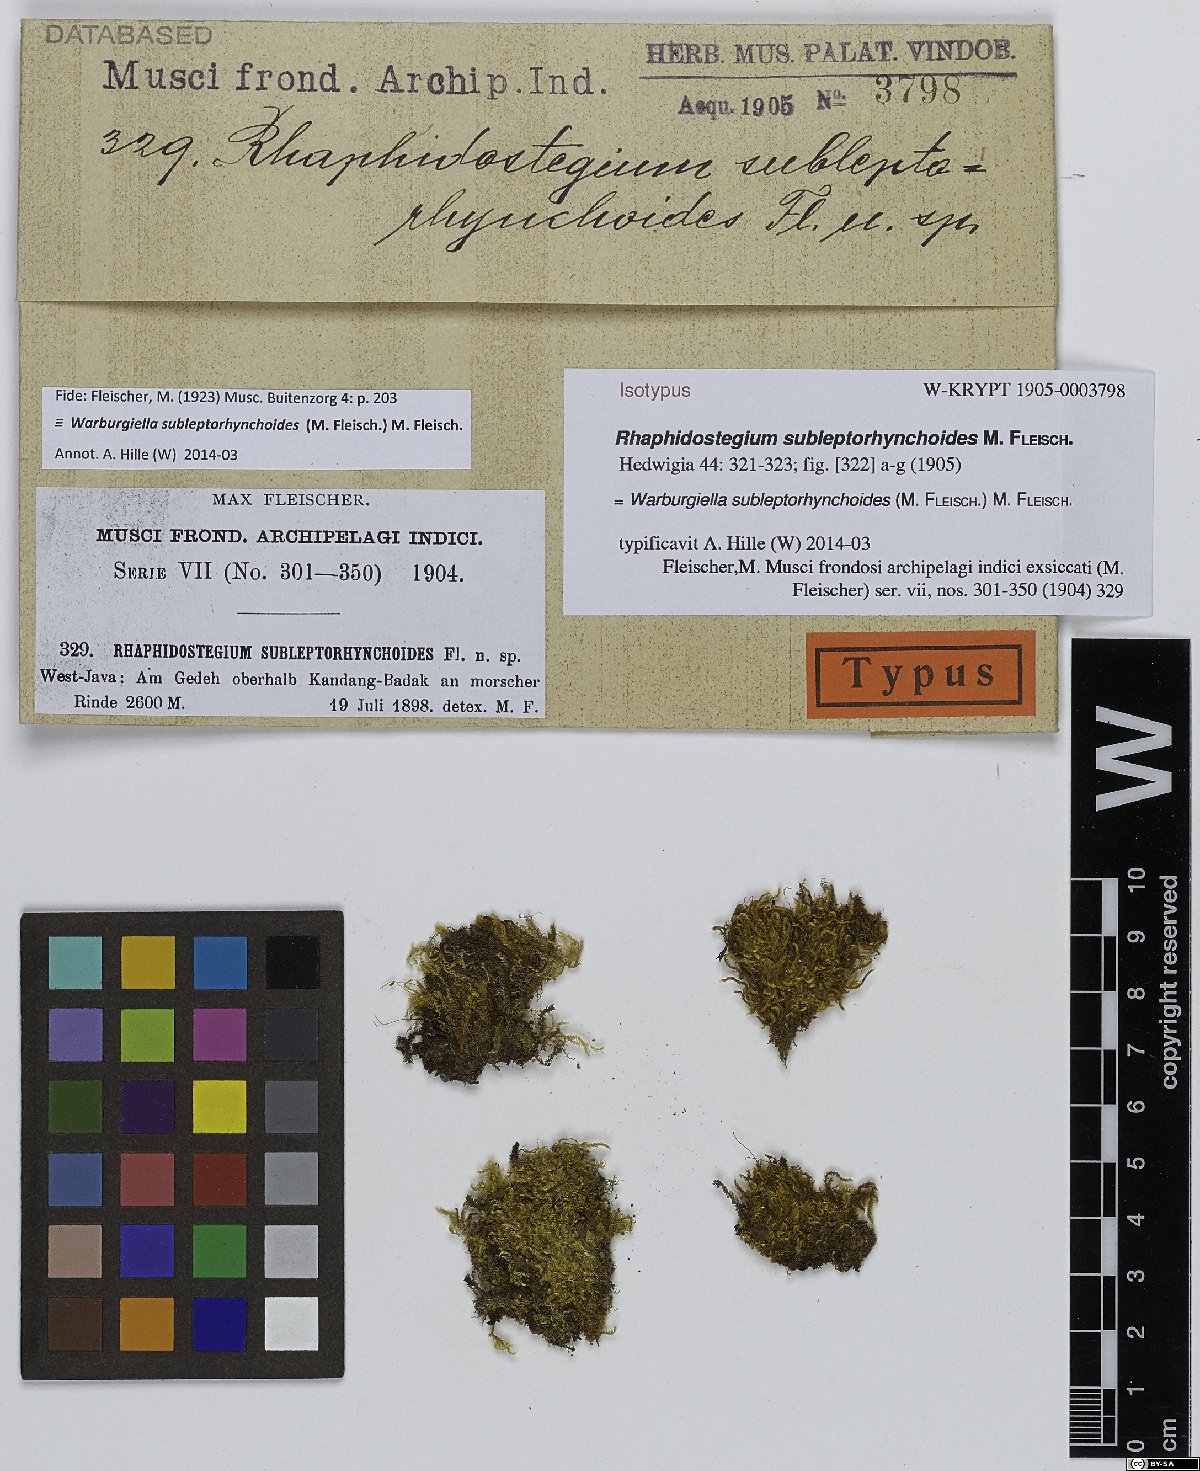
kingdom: Plantae
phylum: Bryophyta
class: Bryopsida
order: Hypnales
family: Sematophyllaceae
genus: Warburgiella
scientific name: Warburgiella leptorhynchoides
